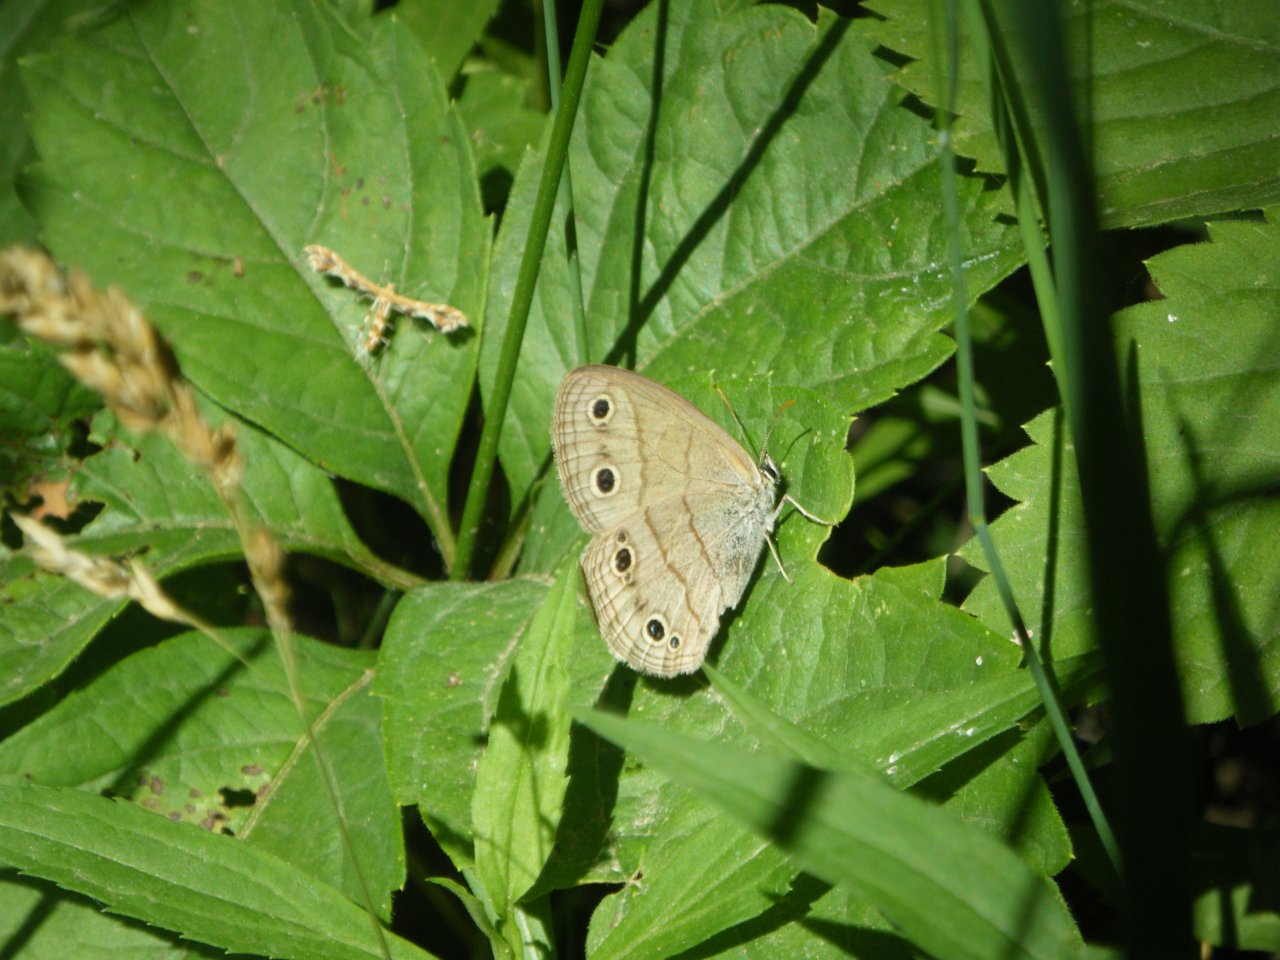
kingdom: Animalia
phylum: Arthropoda
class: Insecta
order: Lepidoptera
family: Nymphalidae
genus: Euptychia
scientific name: Euptychia cymela
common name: Little Wood Satyr
